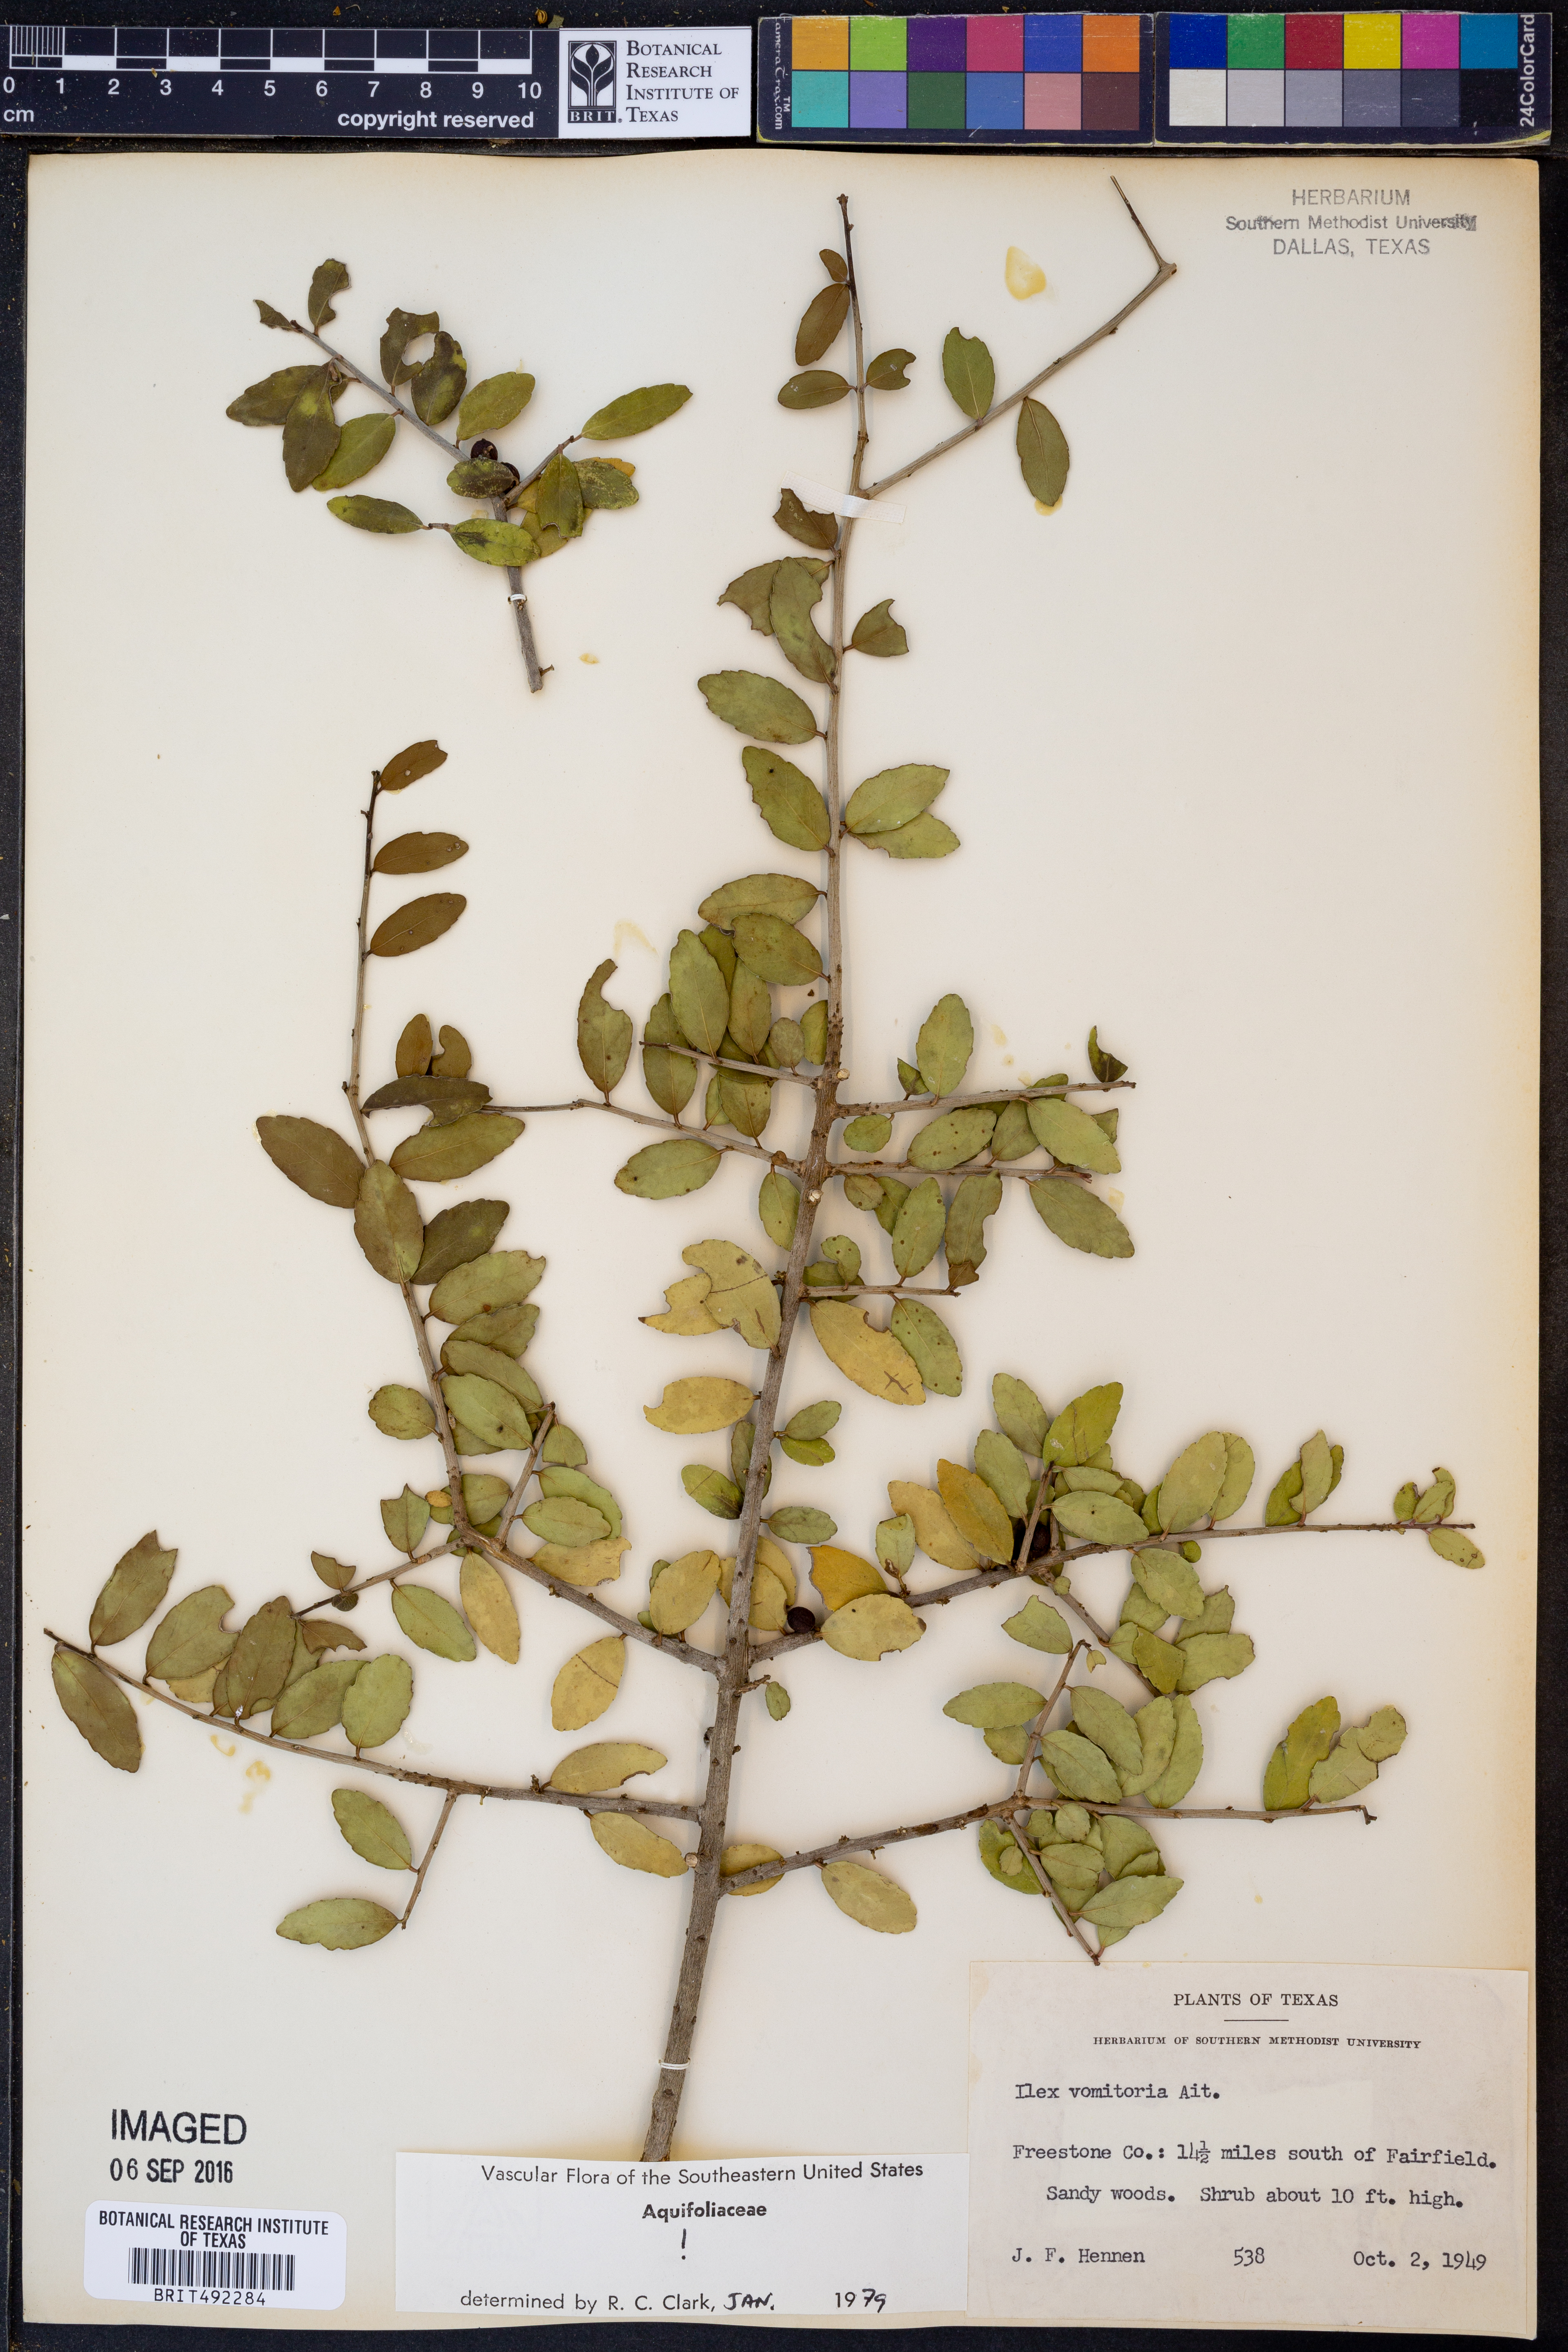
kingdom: Plantae
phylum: Tracheophyta
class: Magnoliopsida
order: Aquifoliales
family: Aquifoliaceae
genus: Ilex
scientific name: Ilex vomitoria
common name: Yaupon holly
